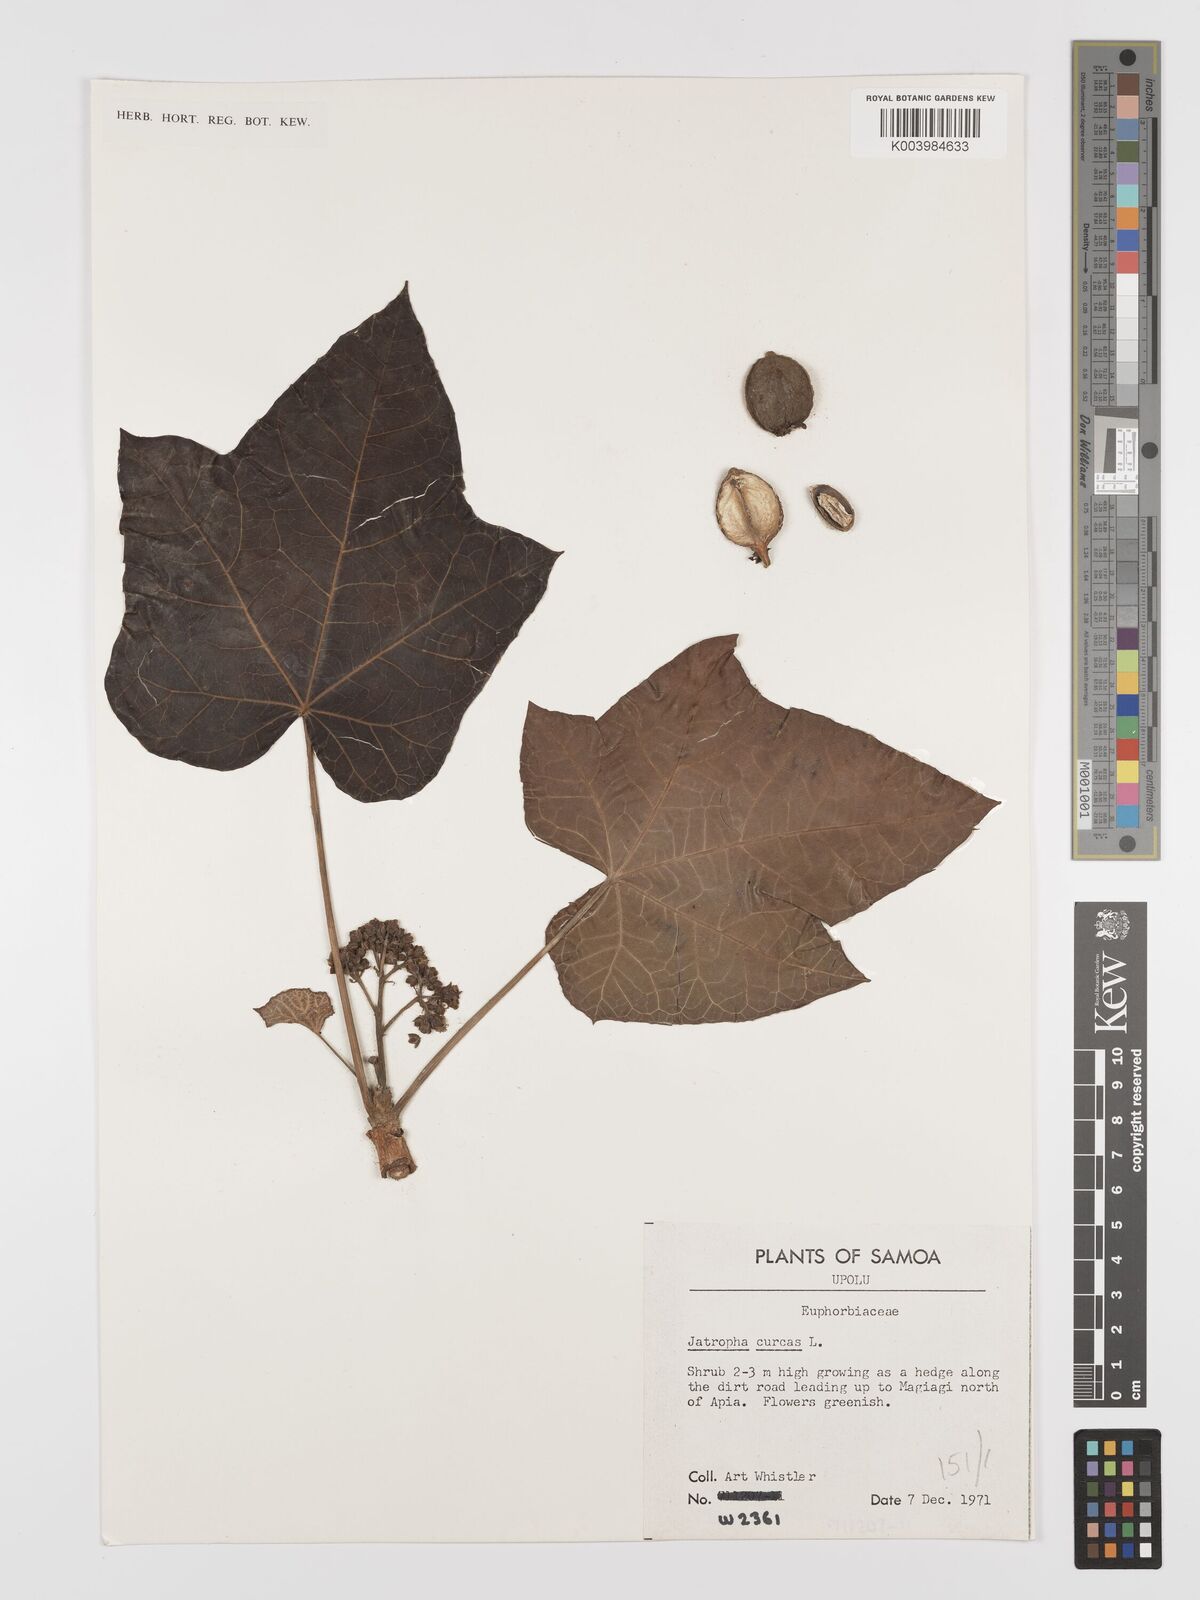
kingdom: Plantae
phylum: Tracheophyta
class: Magnoliopsida
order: Malpighiales
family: Euphorbiaceae
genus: Jatropha
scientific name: Jatropha curcas
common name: Barbados nut
